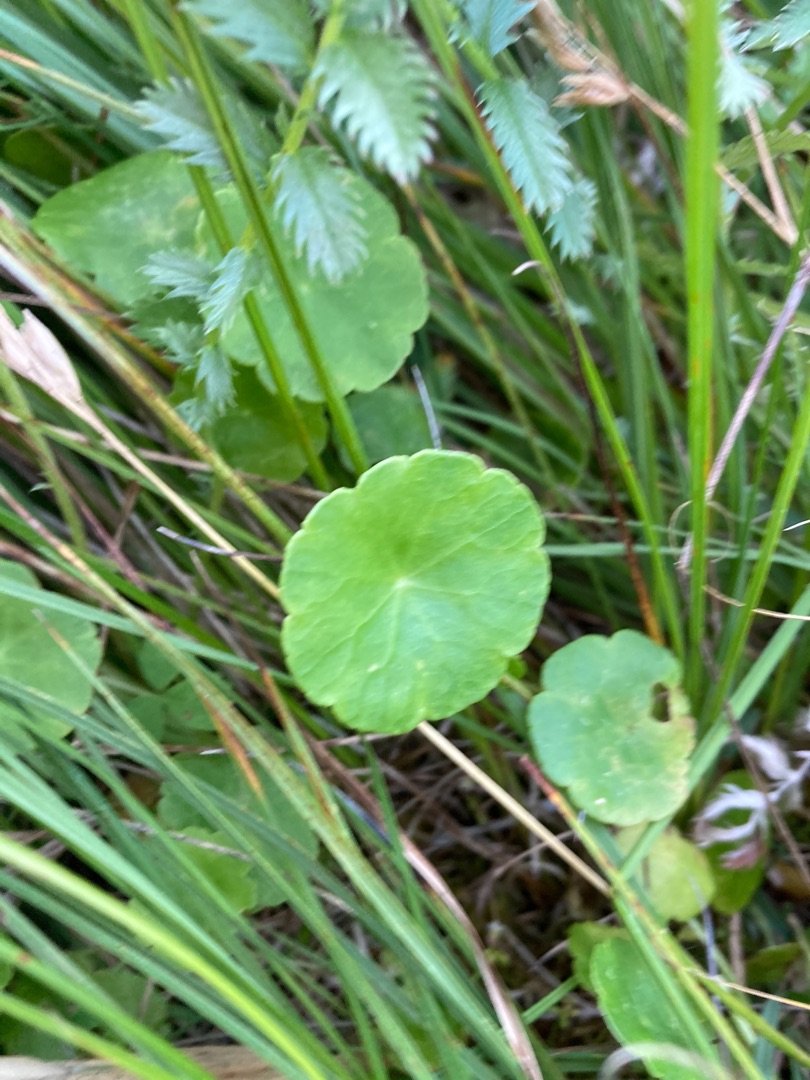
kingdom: Plantae
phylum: Tracheophyta
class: Magnoliopsida
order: Apiales
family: Araliaceae
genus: Hydrocotyle
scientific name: Hydrocotyle vulgaris
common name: Vandnavle
